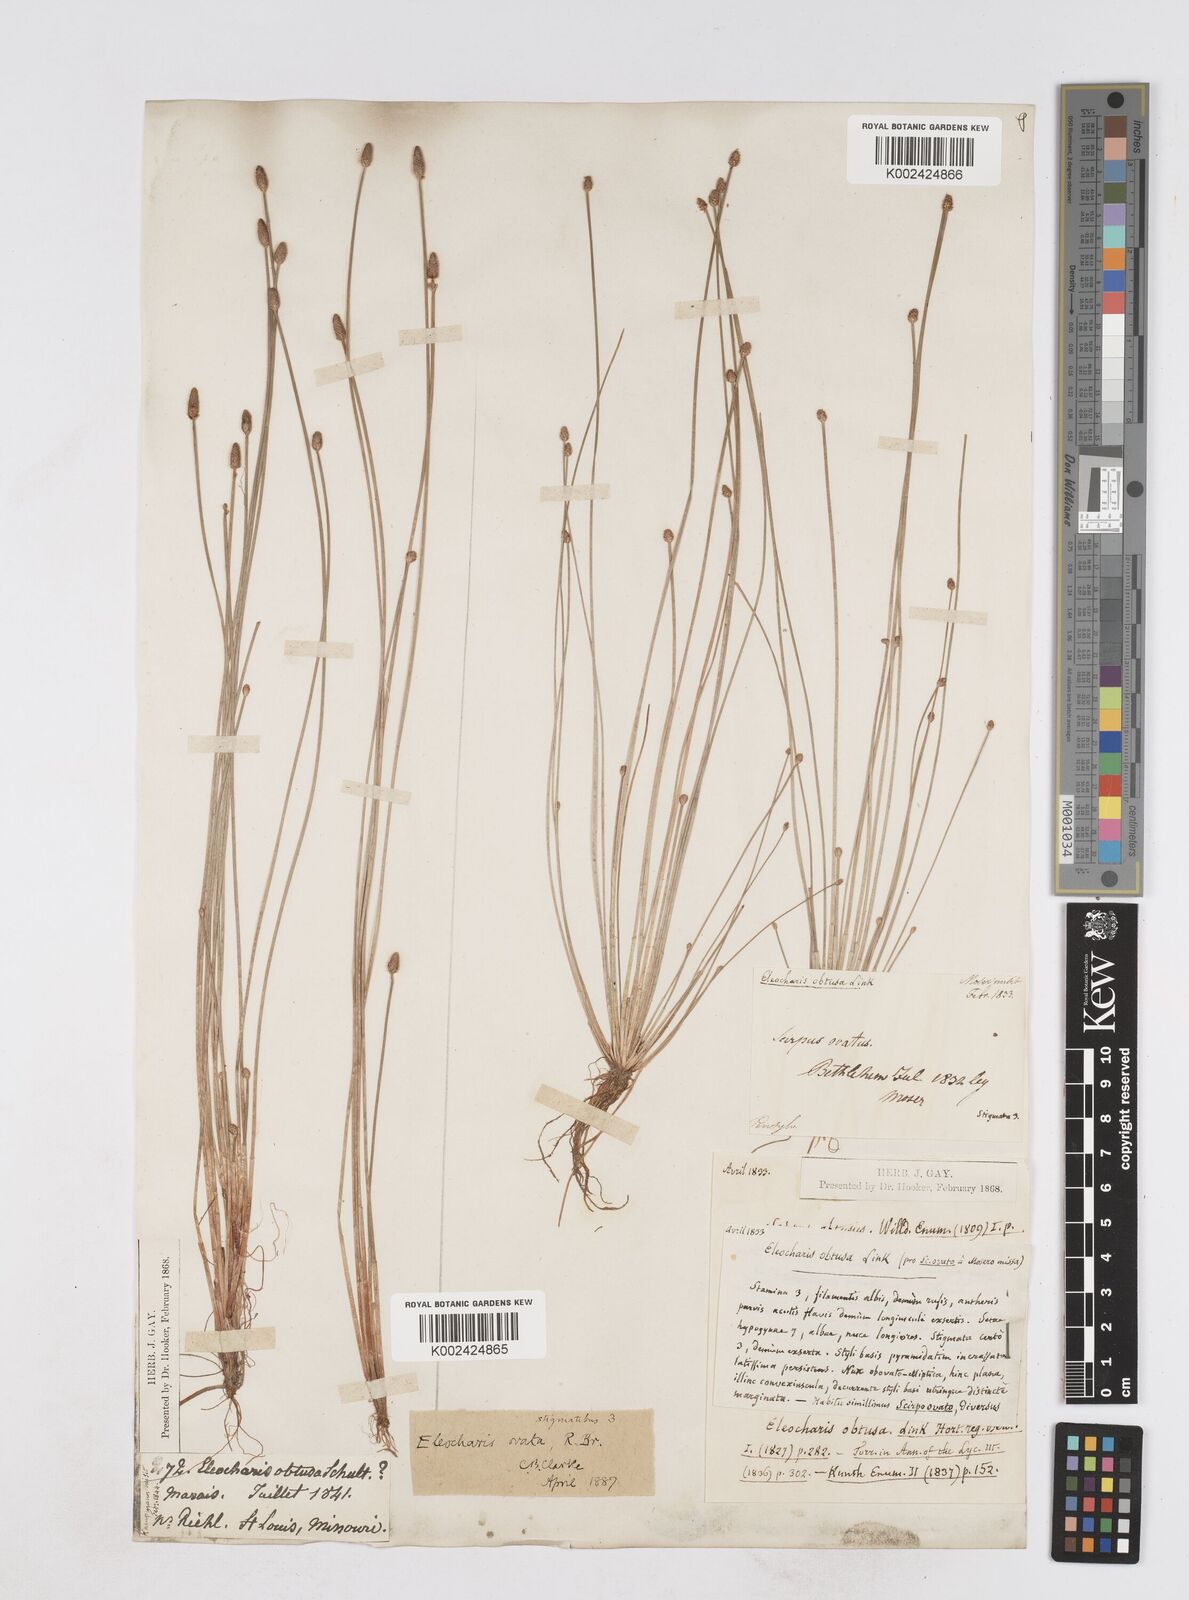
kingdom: Plantae
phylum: Tracheophyta
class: Liliopsida
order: Poales
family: Cyperaceae
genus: Eleocharis
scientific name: Eleocharis obtusa
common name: Blunt spikerush
